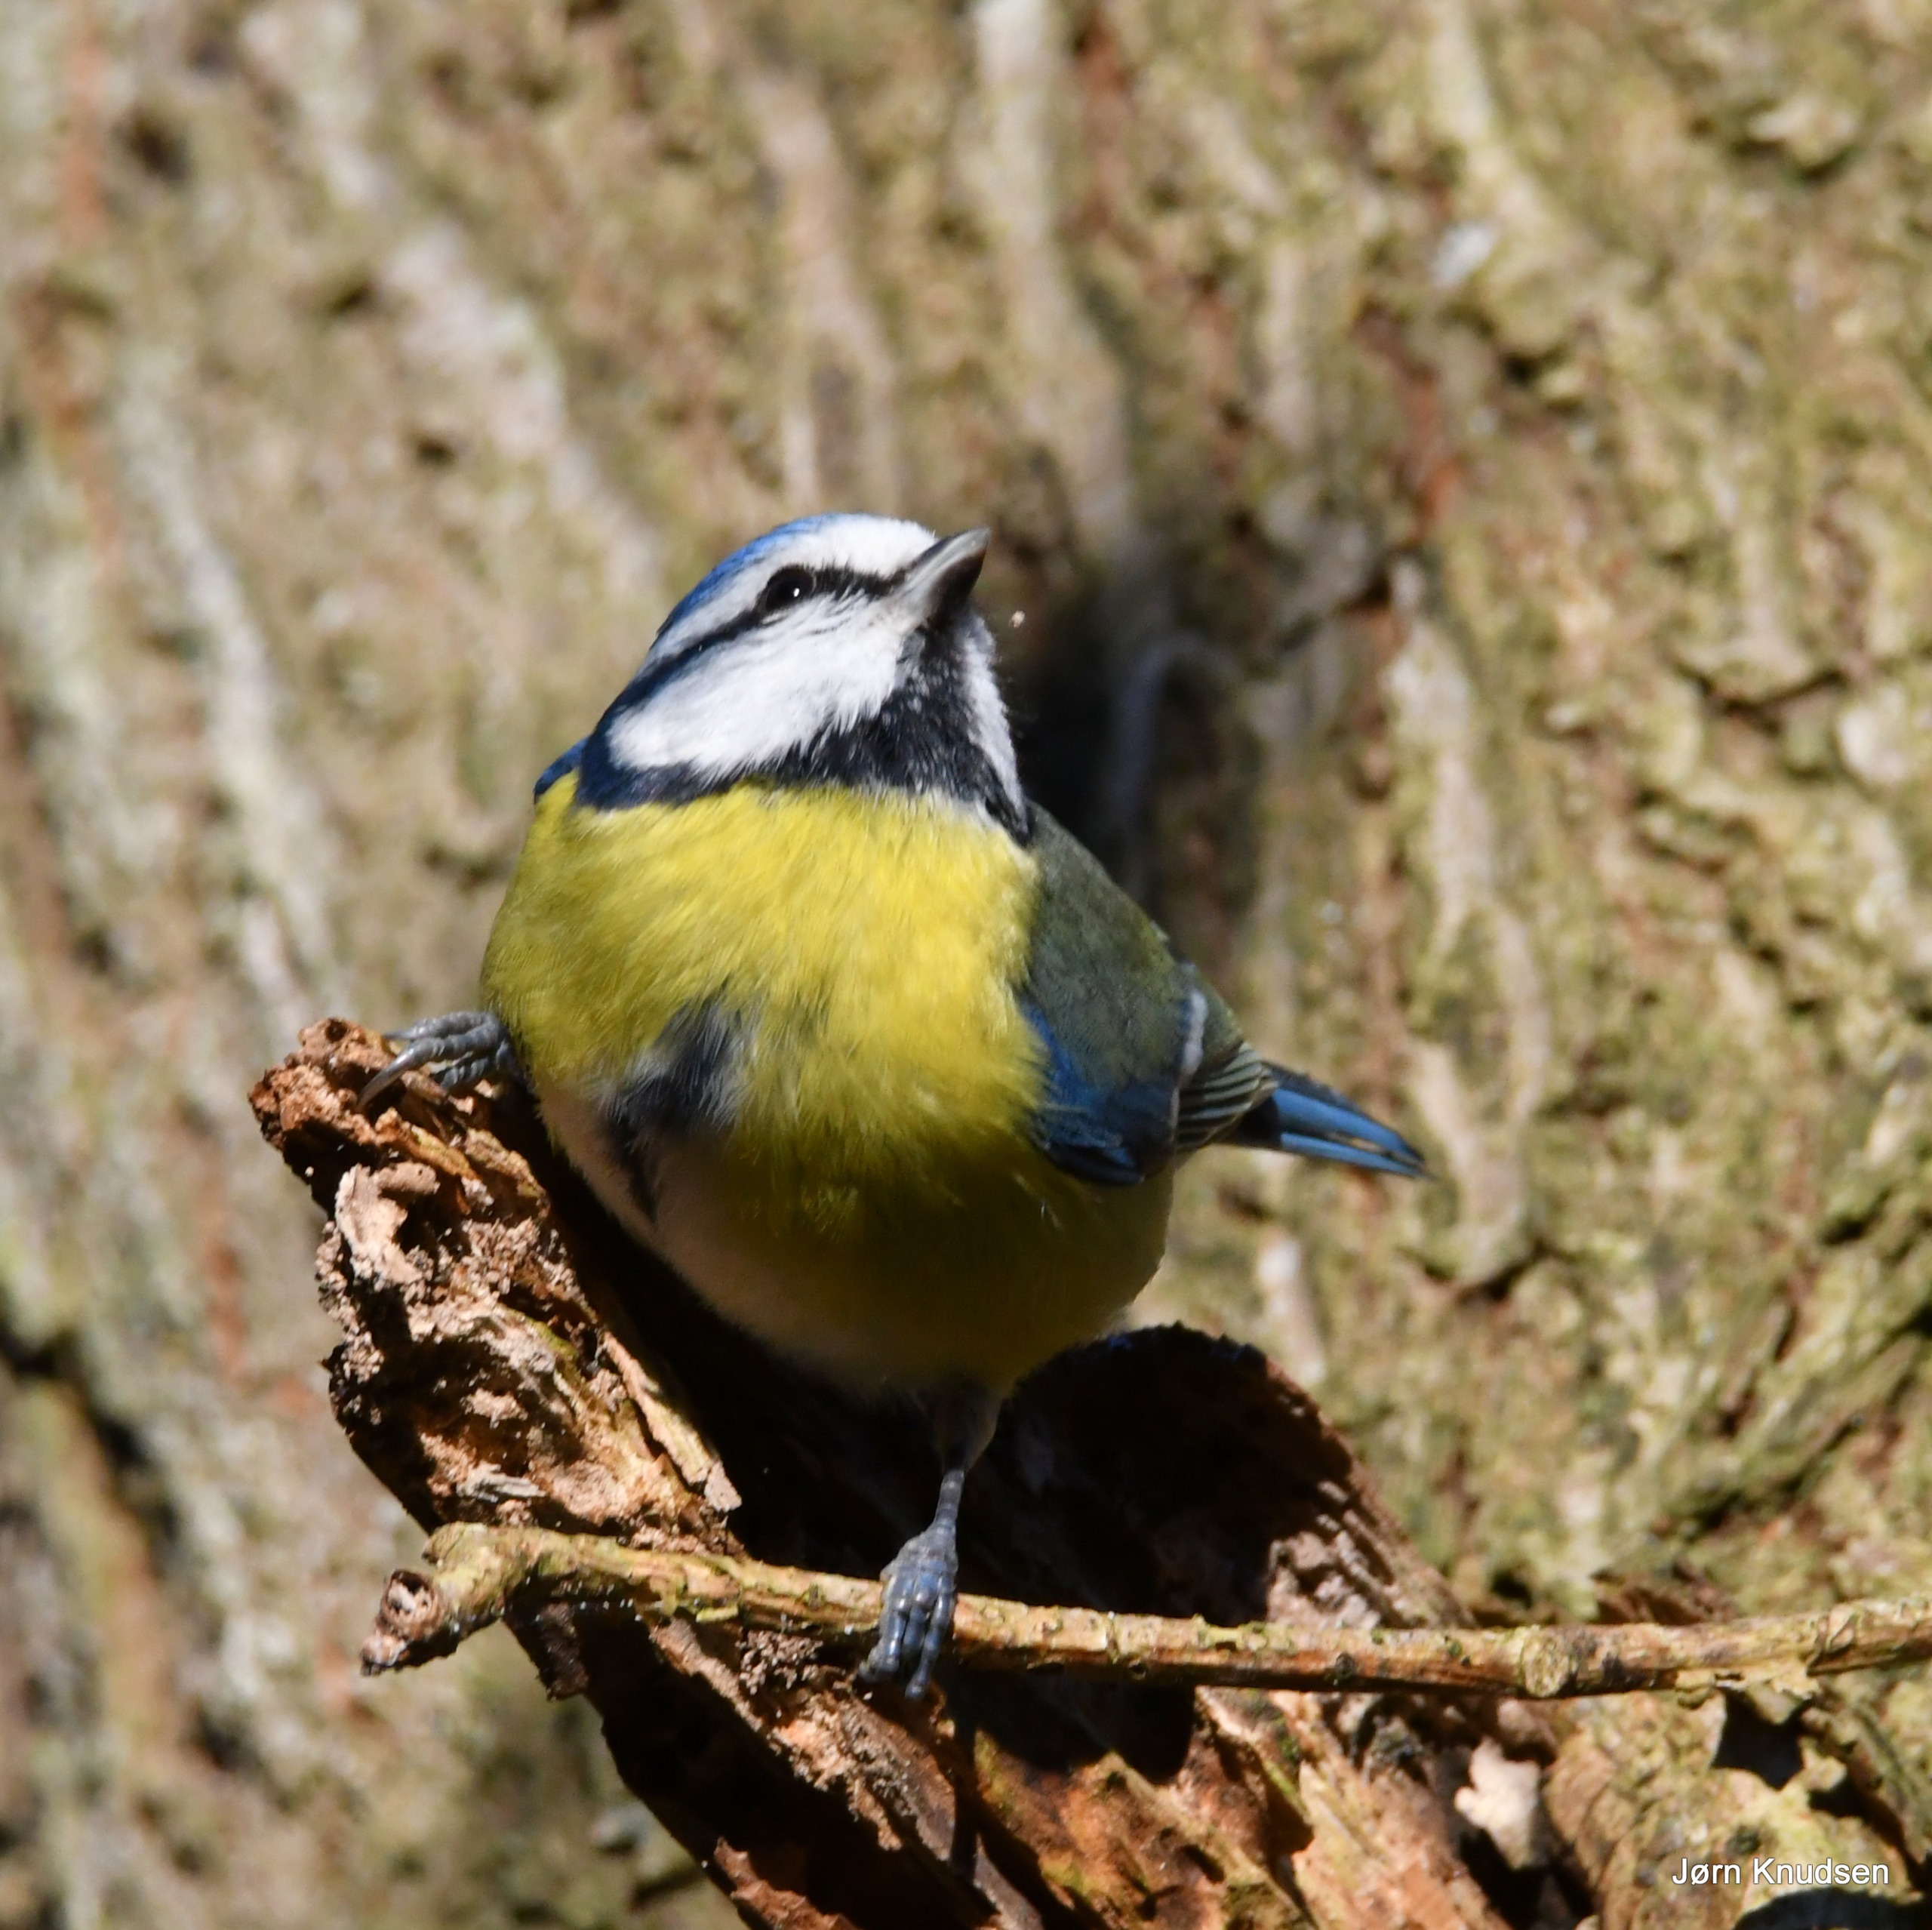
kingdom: Animalia
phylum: Chordata
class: Aves
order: Passeriformes
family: Paridae
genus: Cyanistes
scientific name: Cyanistes caeruleus
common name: Blåmejse
